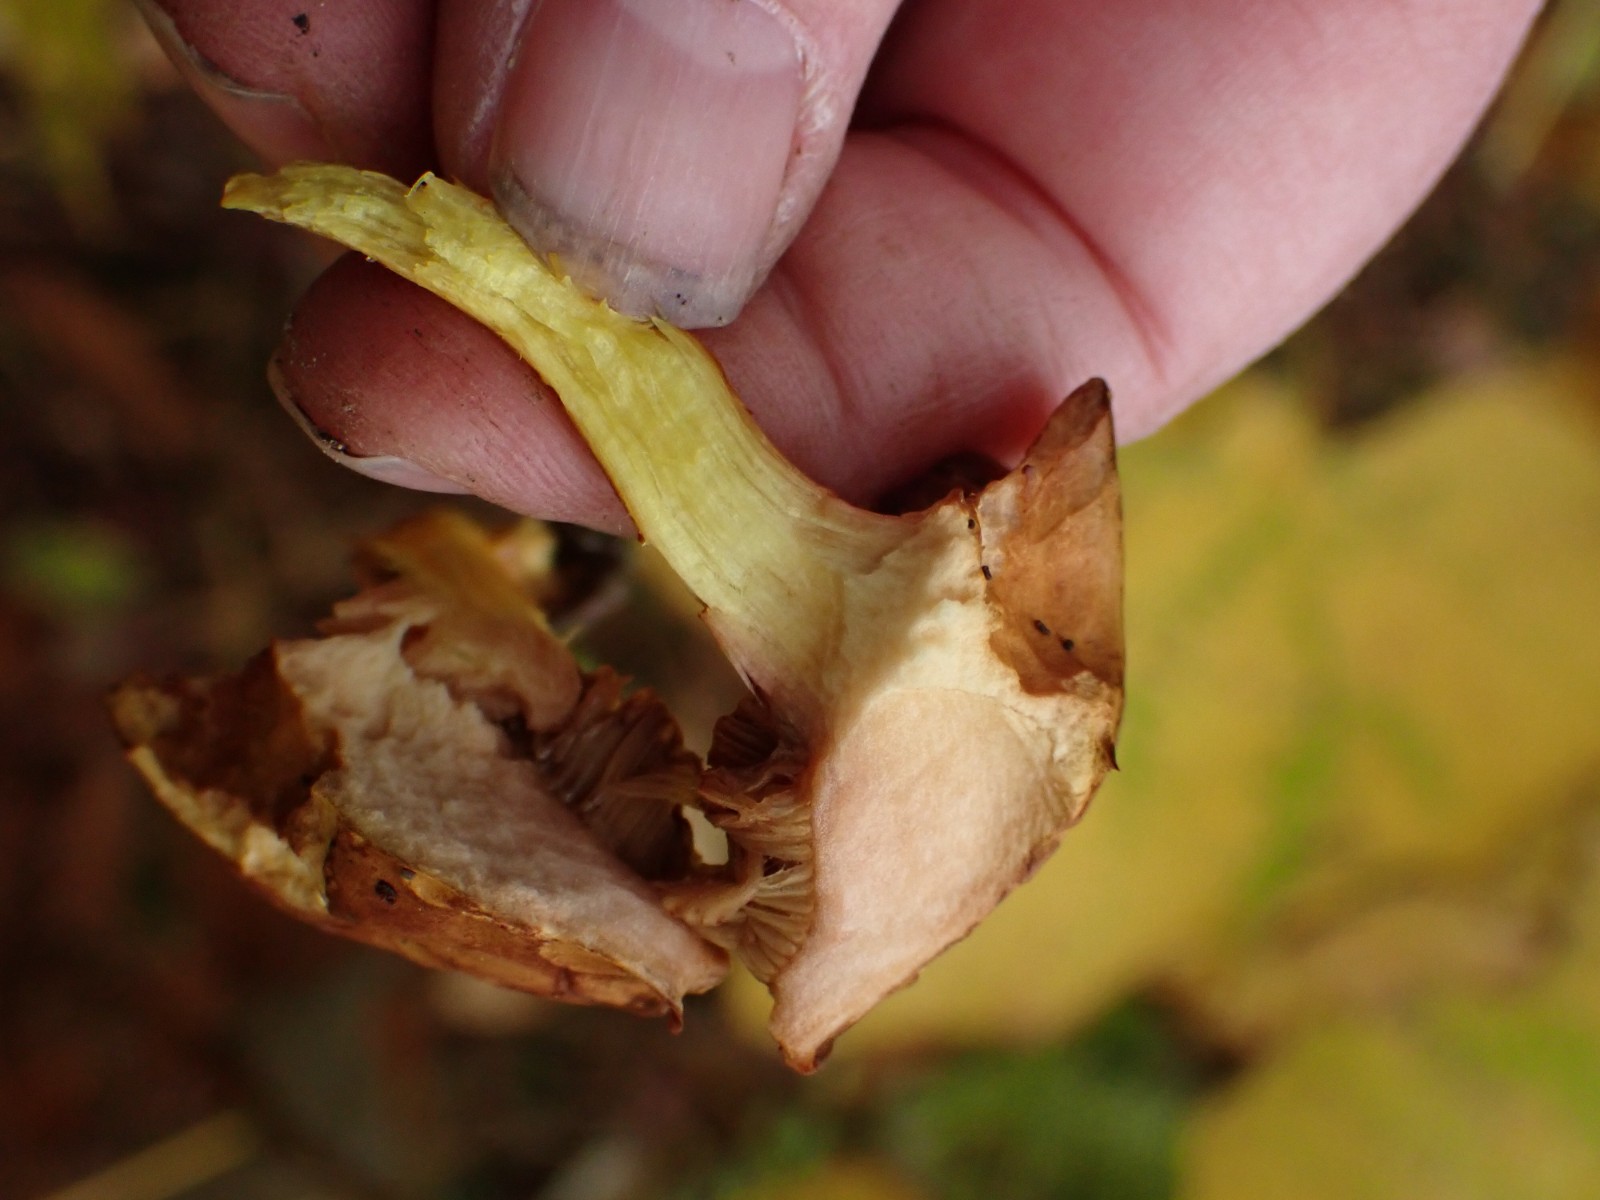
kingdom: Fungi
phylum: Basidiomycota
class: Agaricomycetes
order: Boletales
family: Boletaceae
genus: Chalciporus
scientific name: Chalciporus piperatus
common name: peberrørhat
